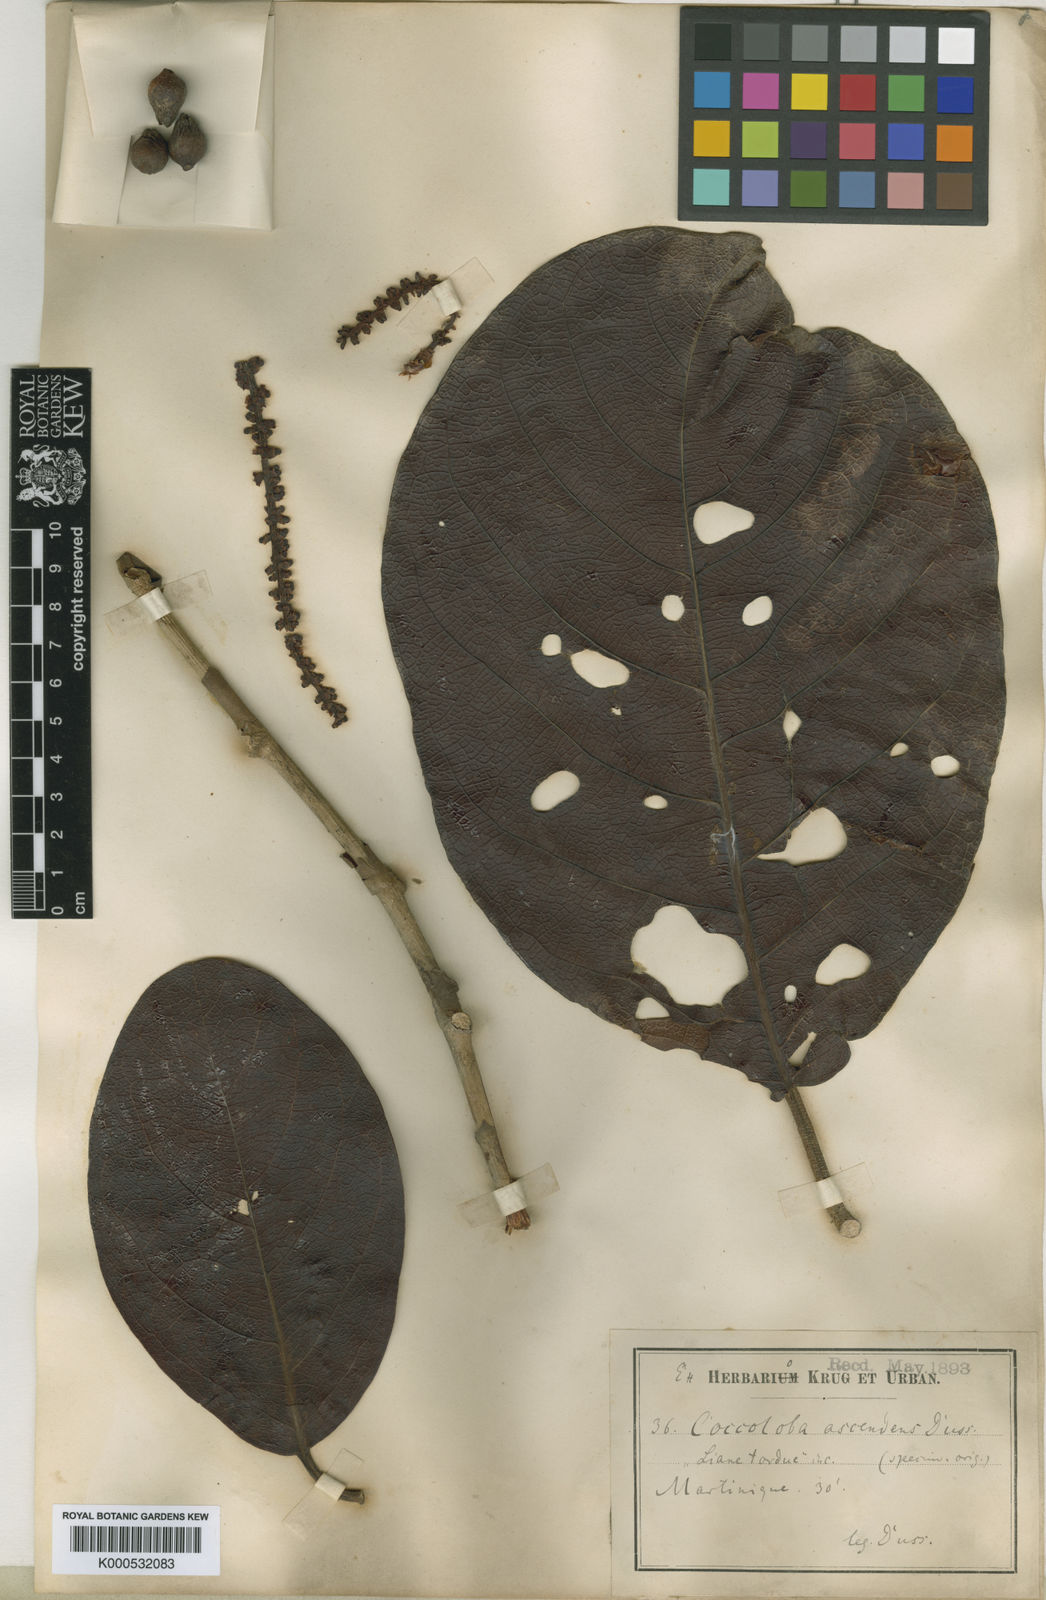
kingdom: Plantae
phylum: Tracheophyta
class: Magnoliopsida
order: Caryophyllales
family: Polygonaceae
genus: Coccoloba
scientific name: Coccoloba
